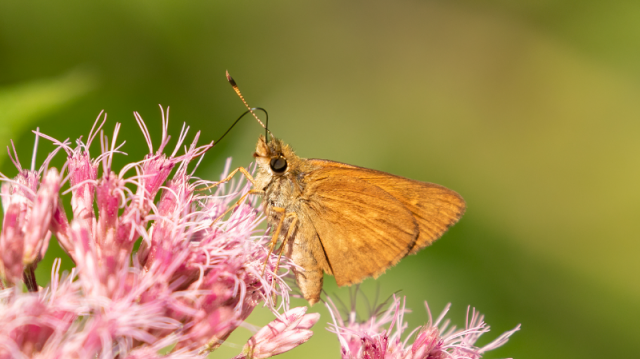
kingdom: Animalia
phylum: Arthropoda
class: Insecta
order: Lepidoptera
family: Hesperiidae
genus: Poanes
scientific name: Poanes viator
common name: Broad-winged Skipper
